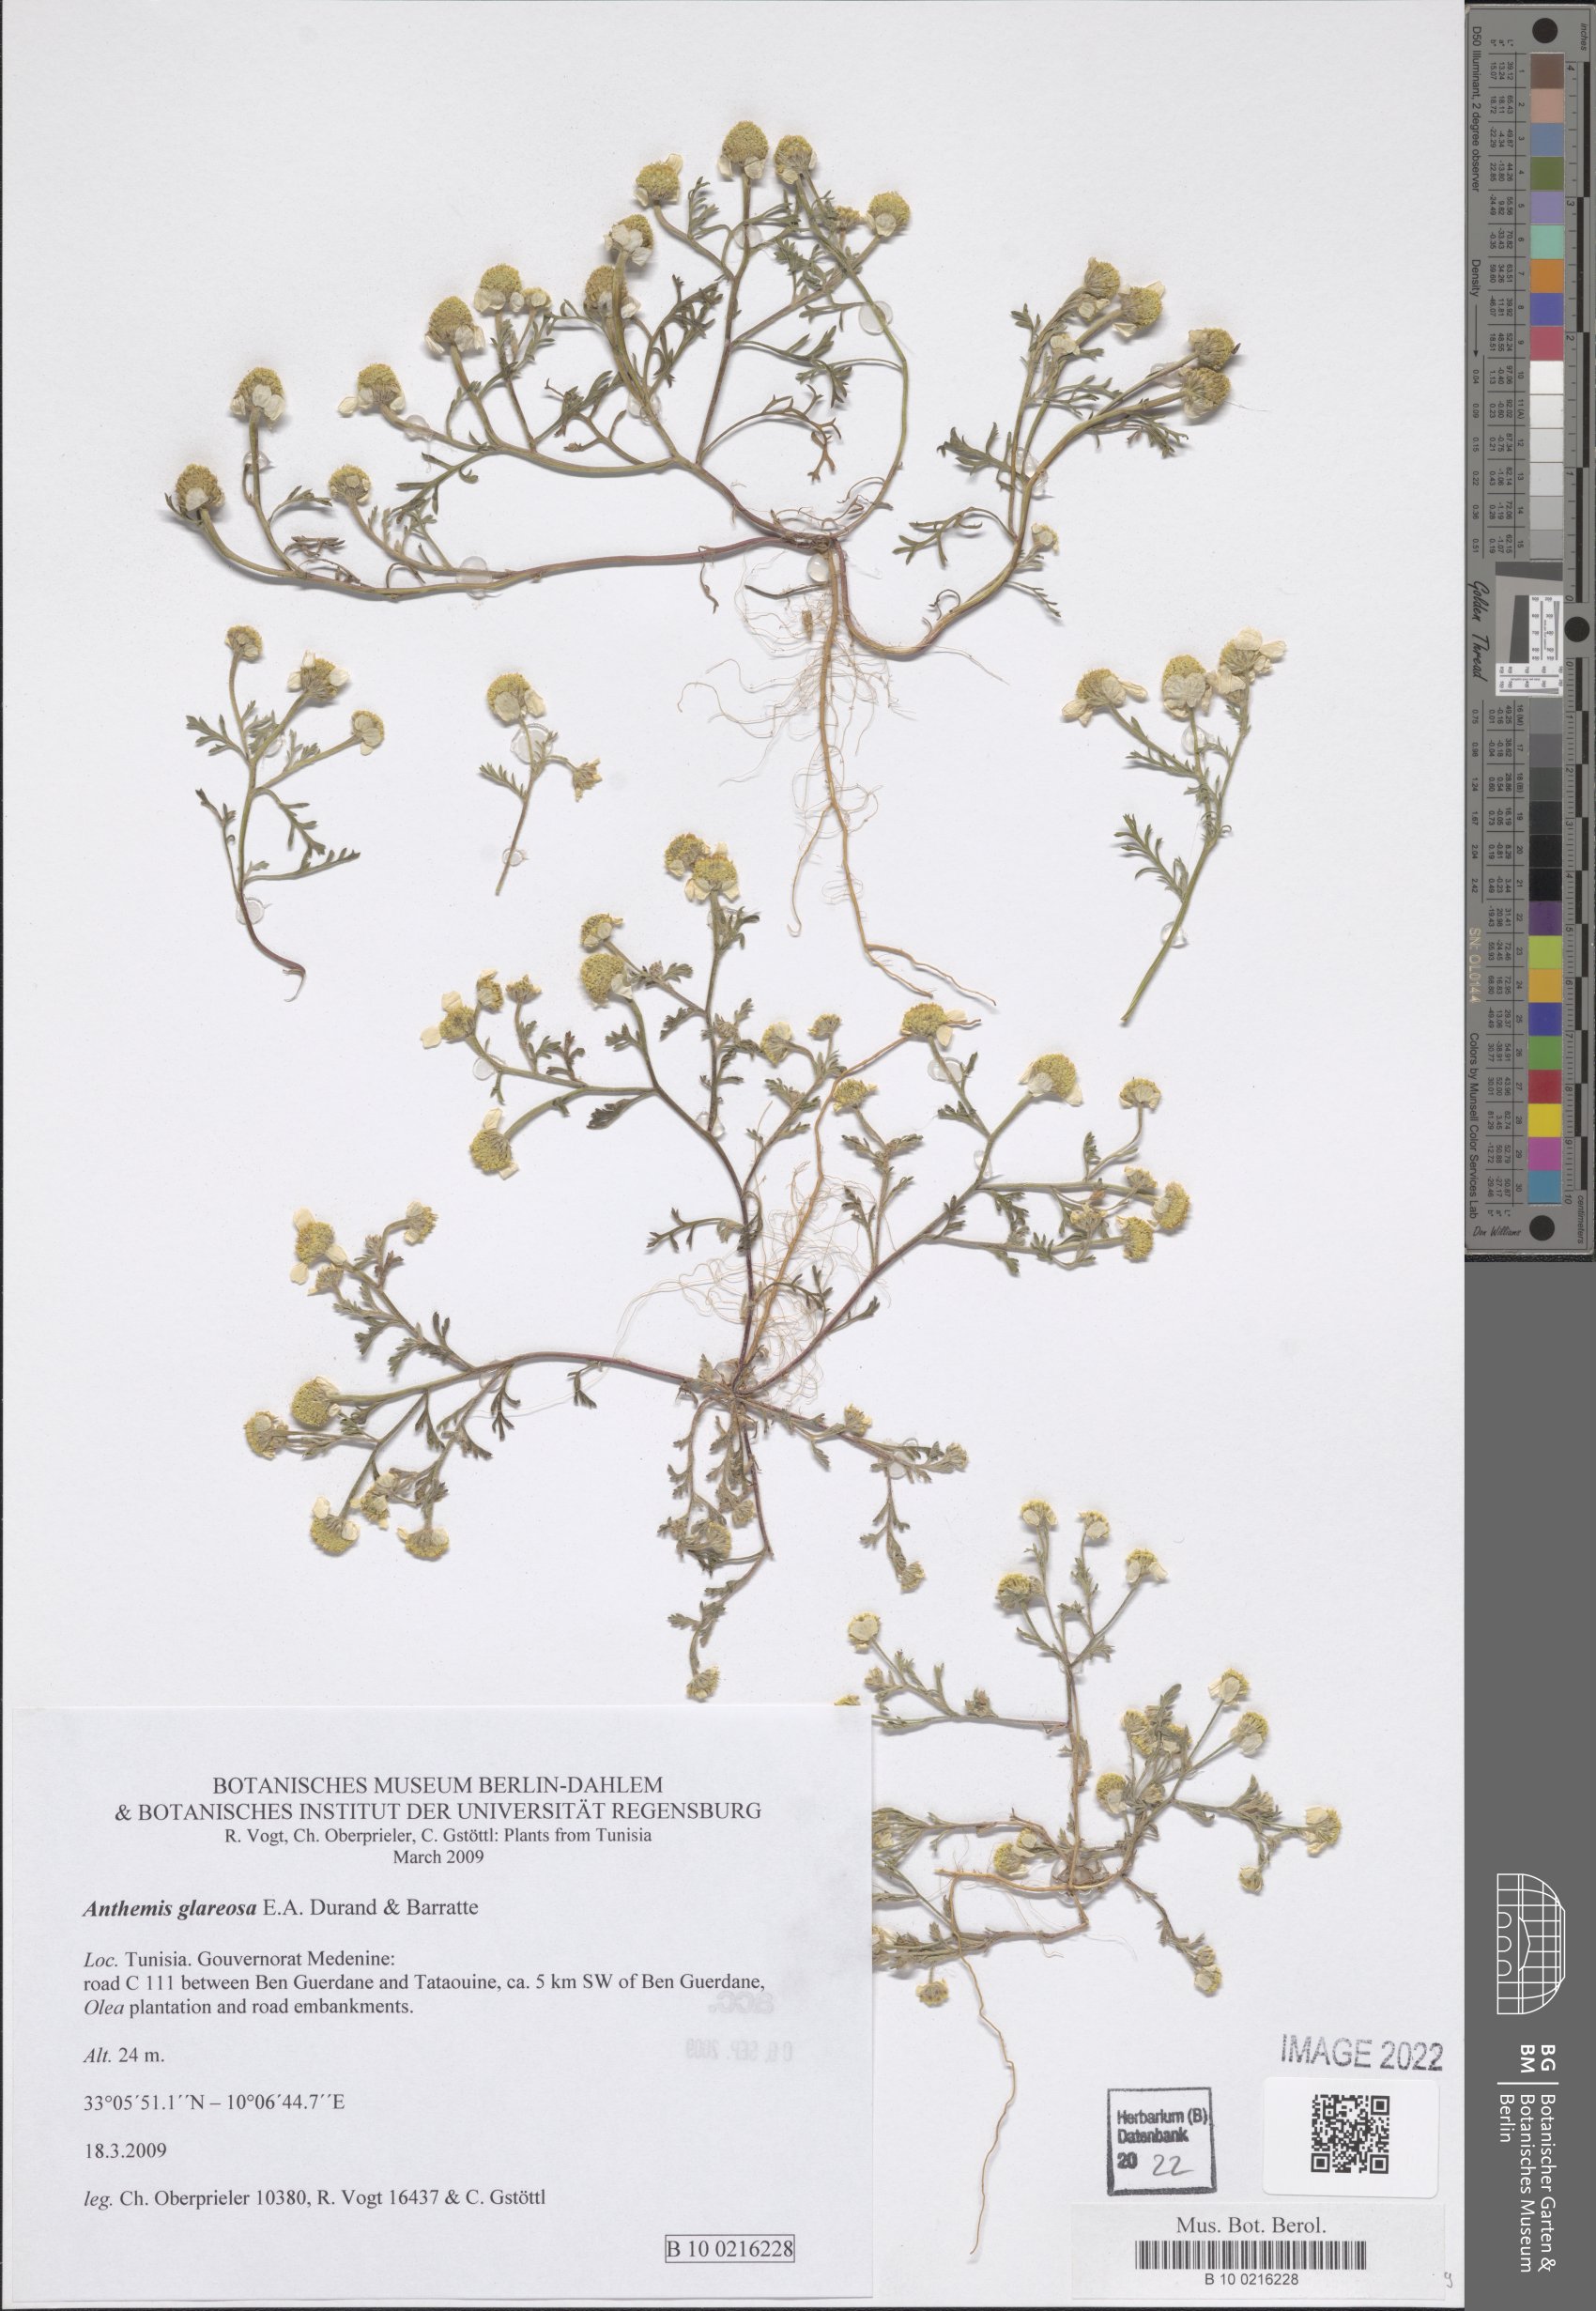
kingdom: Plantae
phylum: Tracheophyta
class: Magnoliopsida
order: Asterales
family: Asteraceae
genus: Anthemis
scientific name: Anthemis glareosa
